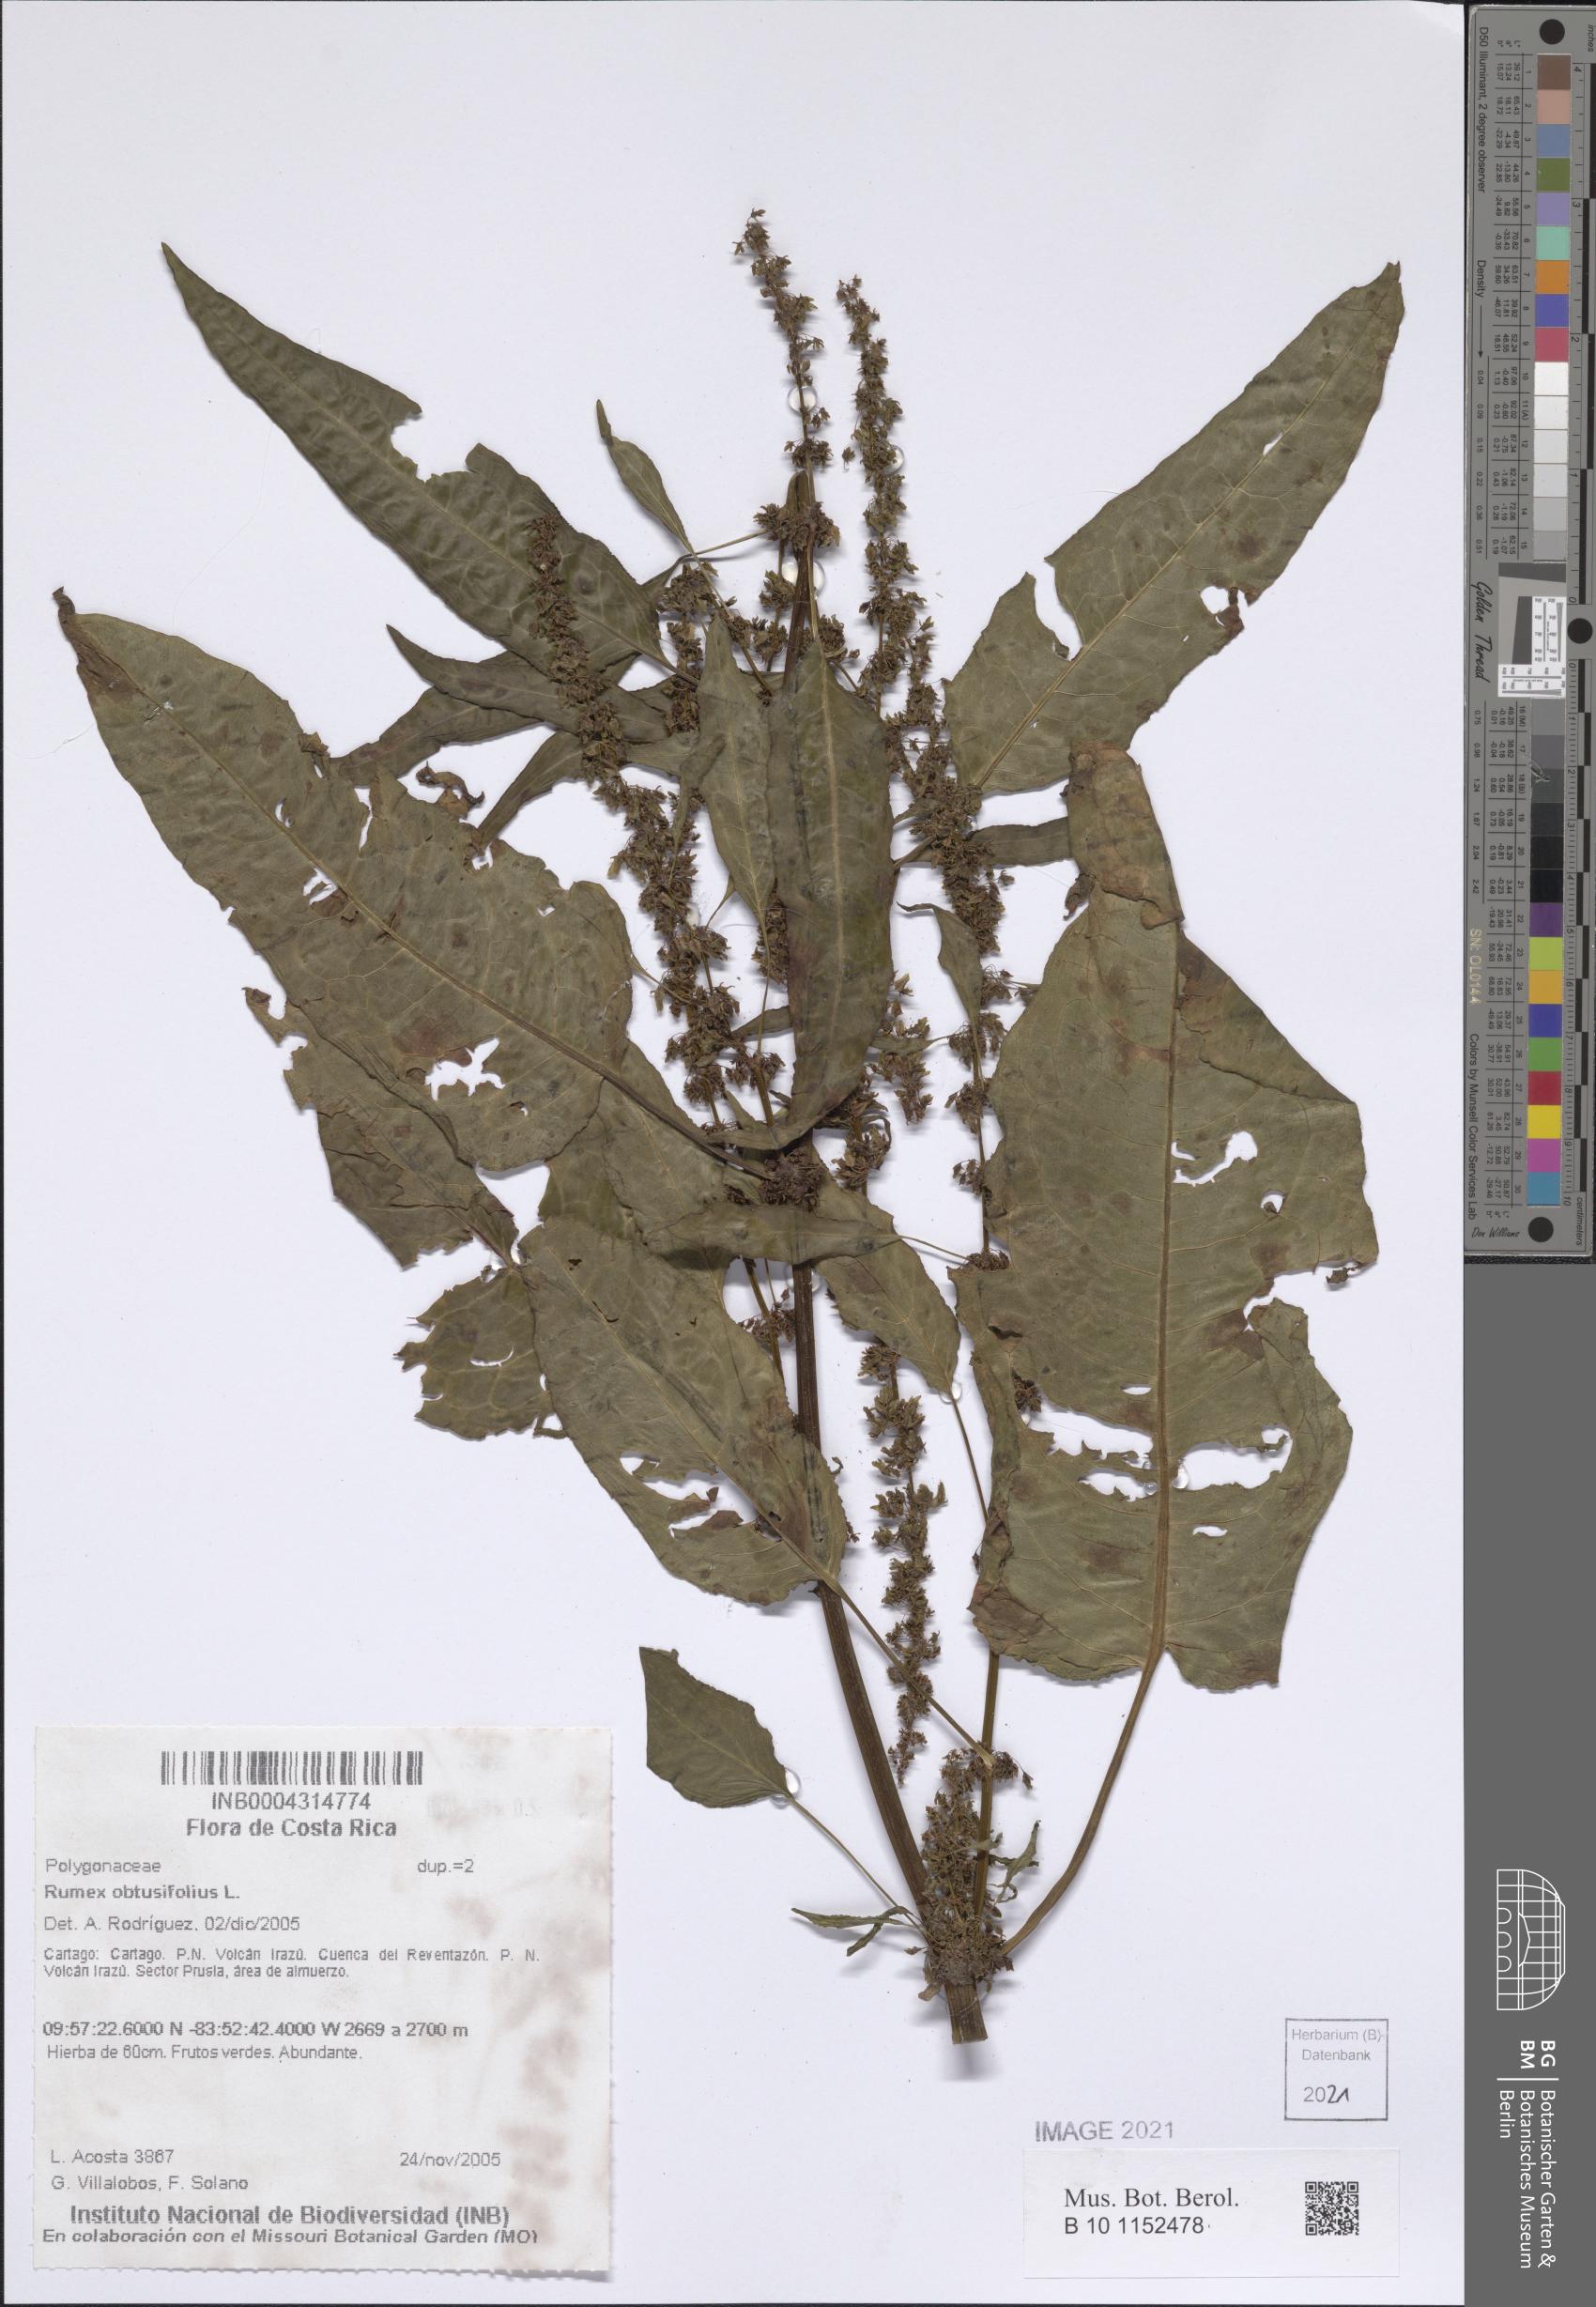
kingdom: Plantae
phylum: Tracheophyta
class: Magnoliopsida
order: Caryophyllales
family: Polygonaceae
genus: Rumex
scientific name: Rumex obtusifolius
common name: Bitter dock
